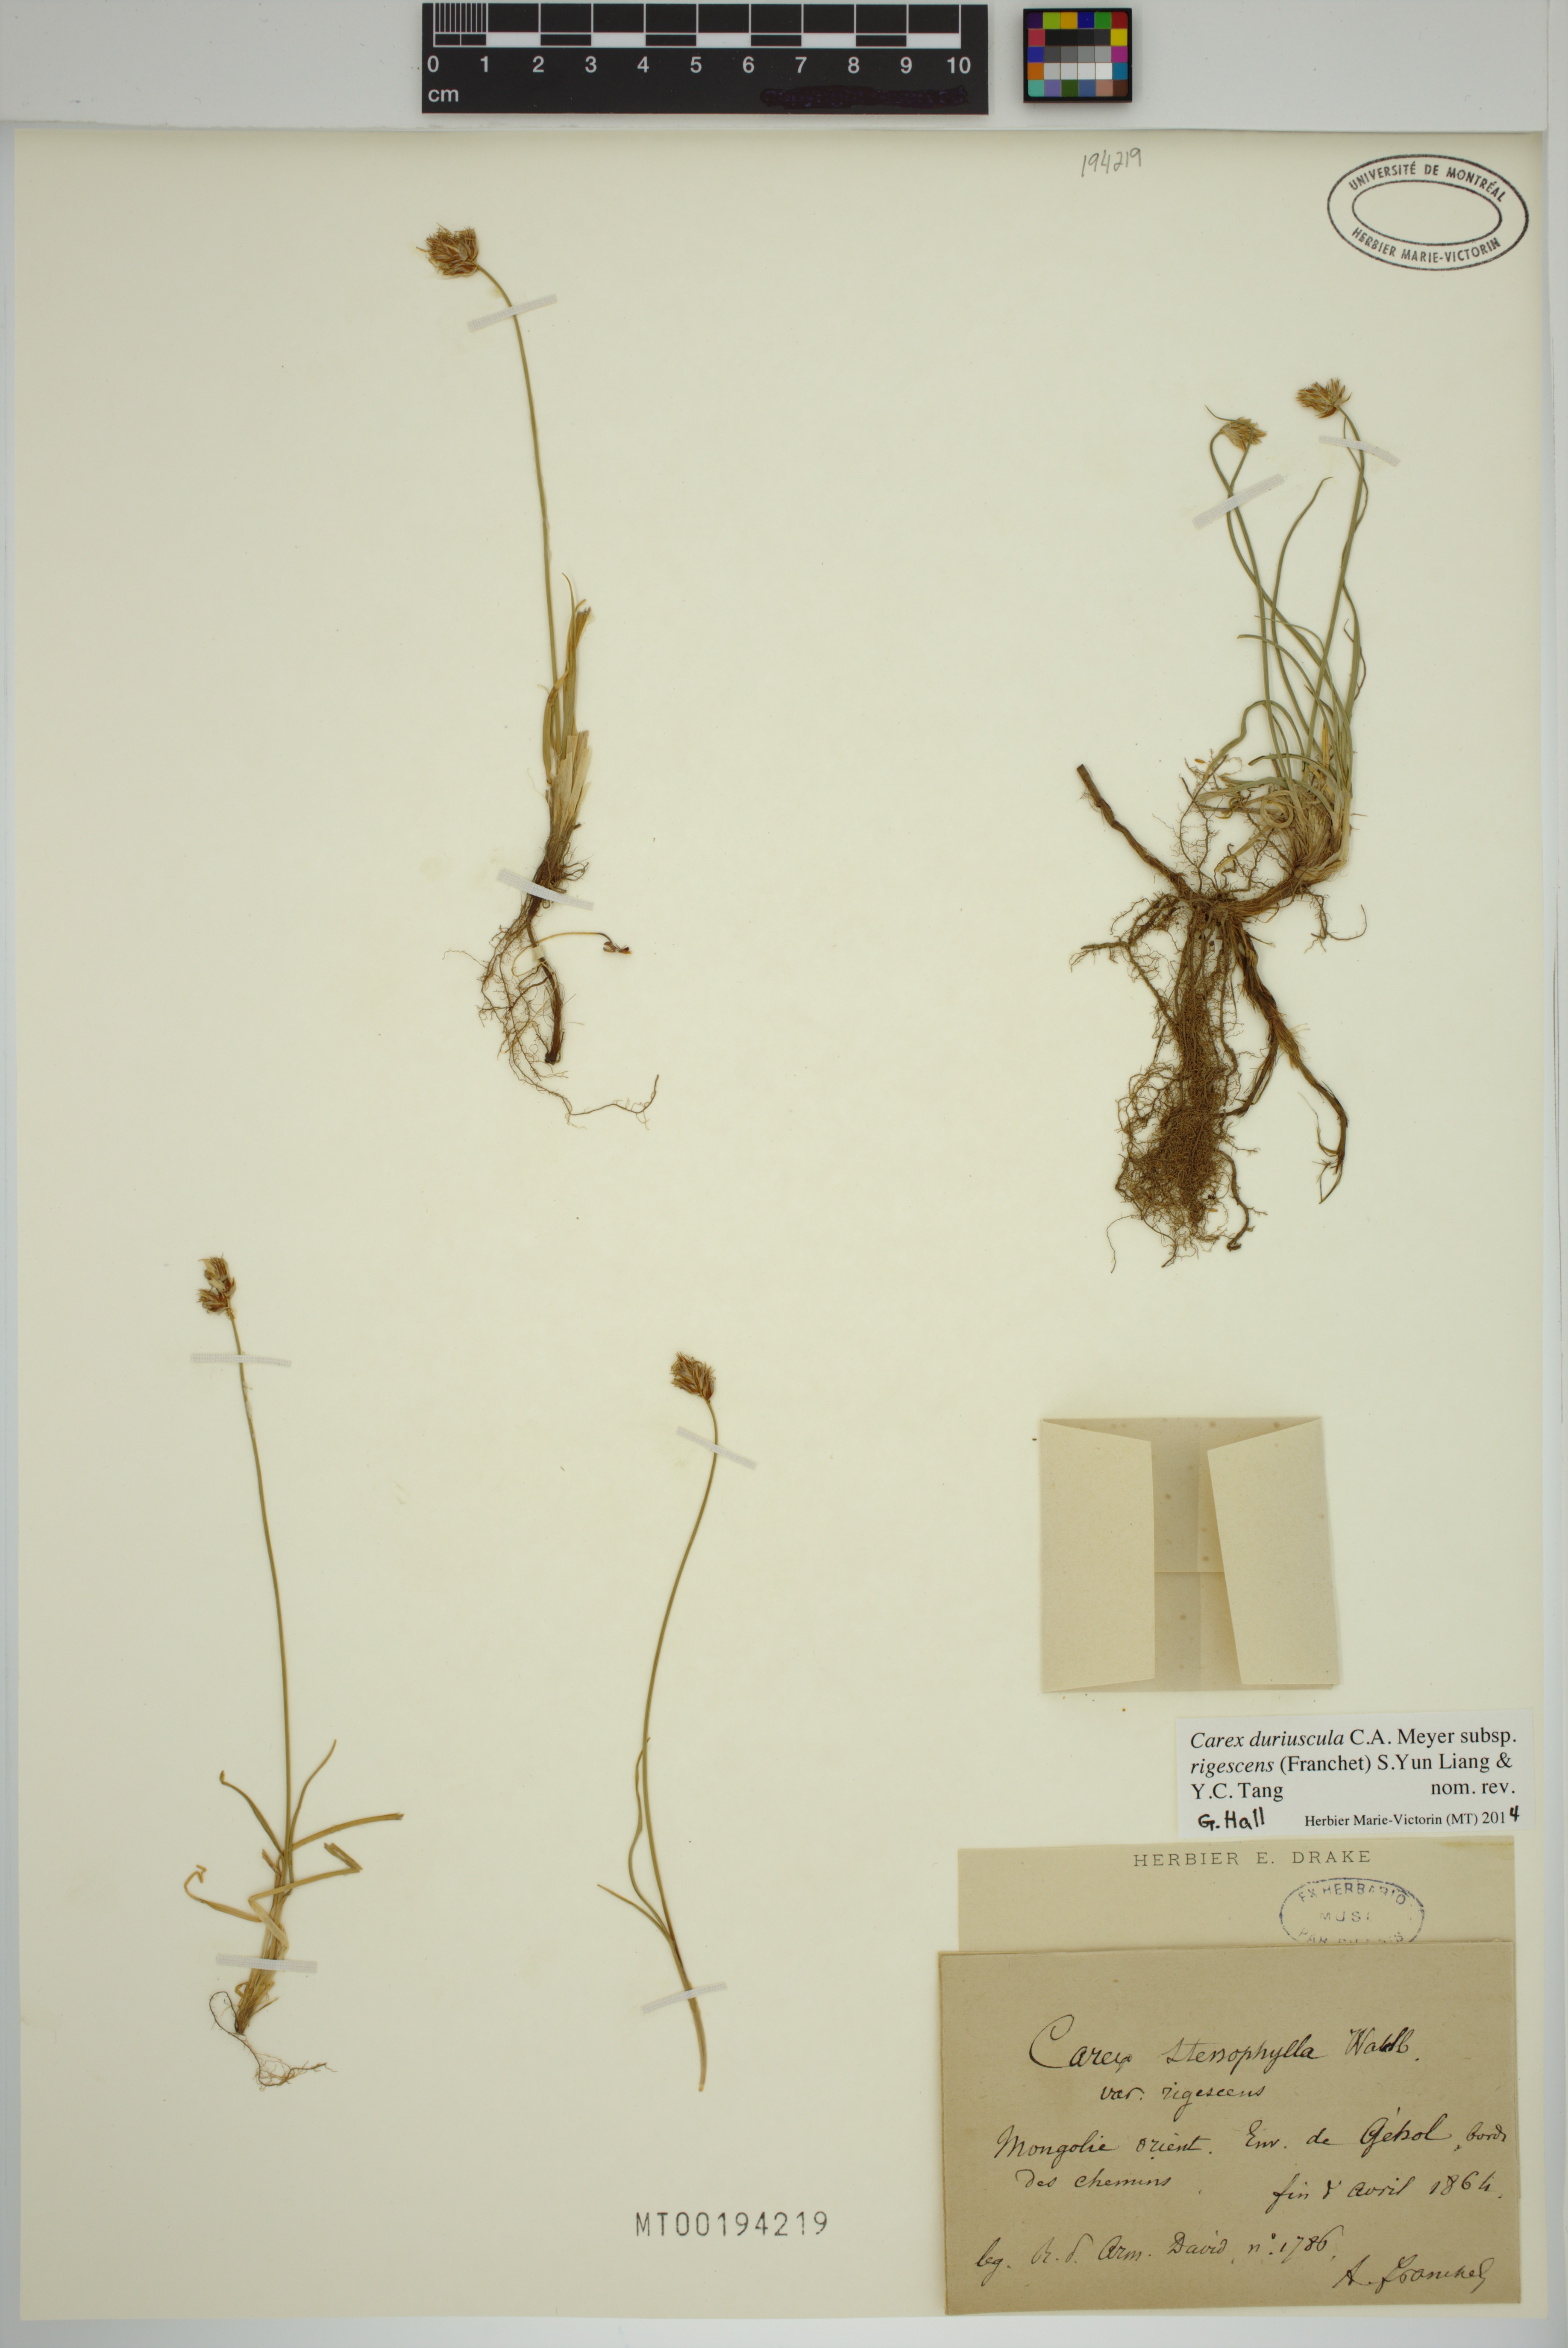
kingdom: Plantae
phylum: Tracheophyta
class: Liliopsida
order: Poales
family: Cyperaceae
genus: Carex
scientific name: Carex duriuscula
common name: Involute-leaved sedge
